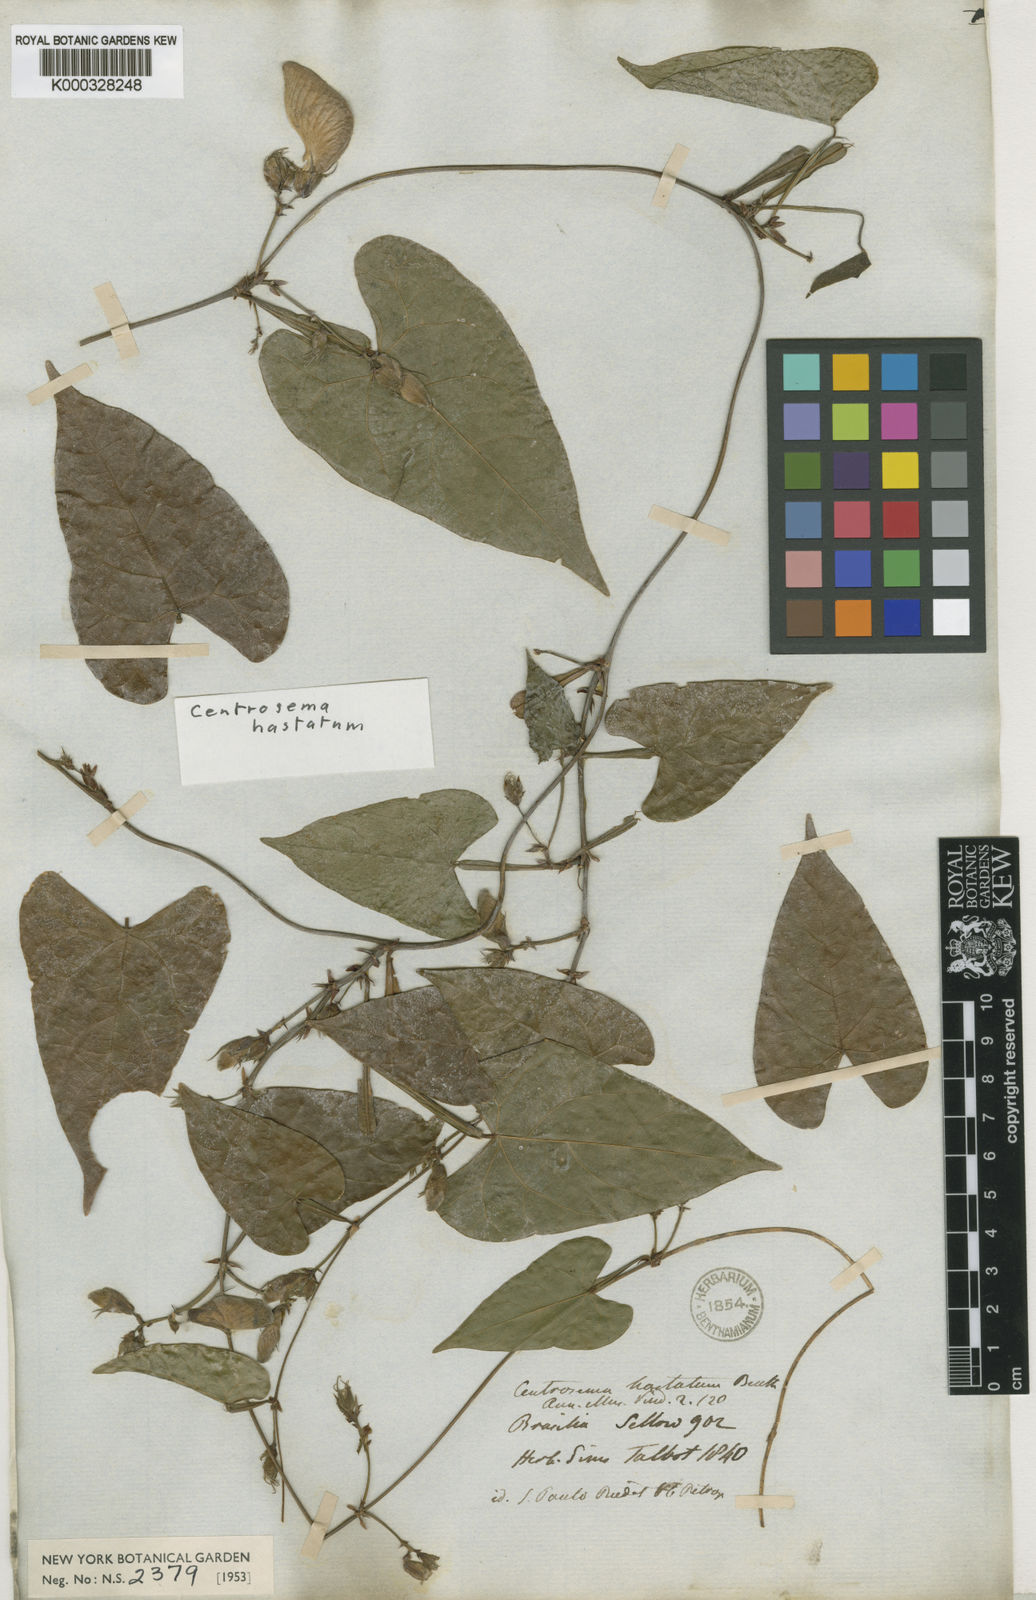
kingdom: Plantae
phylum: Tracheophyta
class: Magnoliopsida
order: Fabales
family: Fabaceae
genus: Centrosema
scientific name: Centrosema
